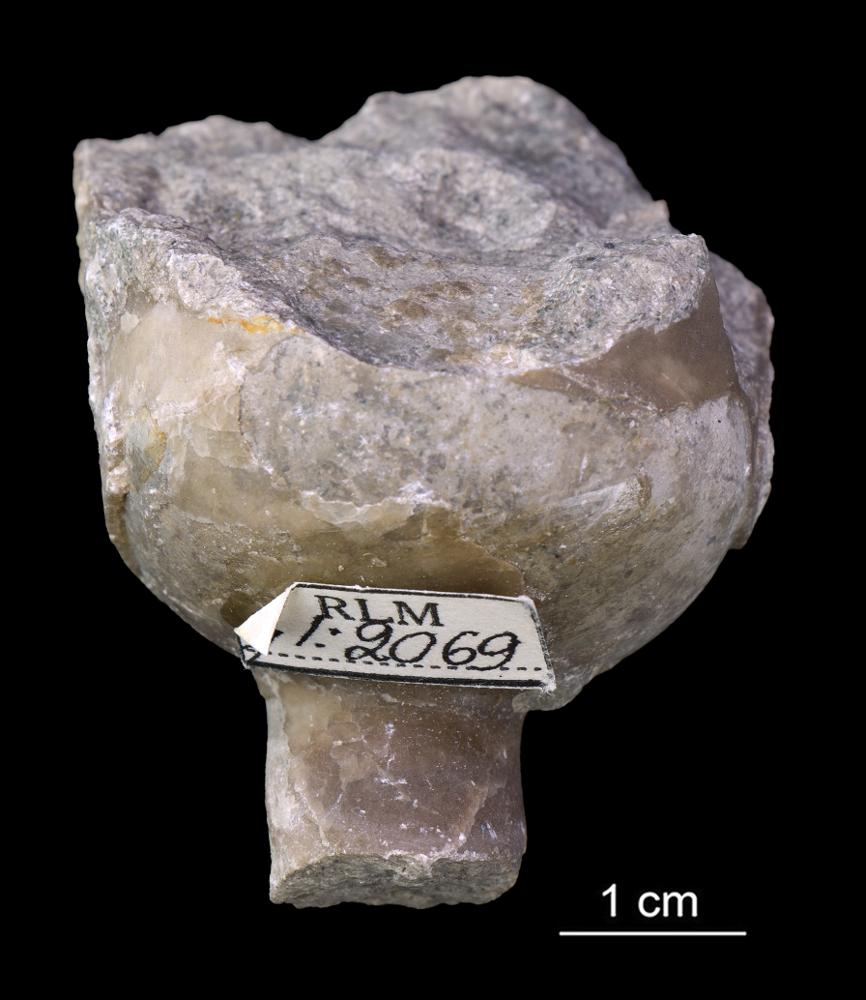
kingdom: Animalia
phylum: Mollusca
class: Cephalopoda
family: Endoceratidae
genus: Endoceras
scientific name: Endoceras
